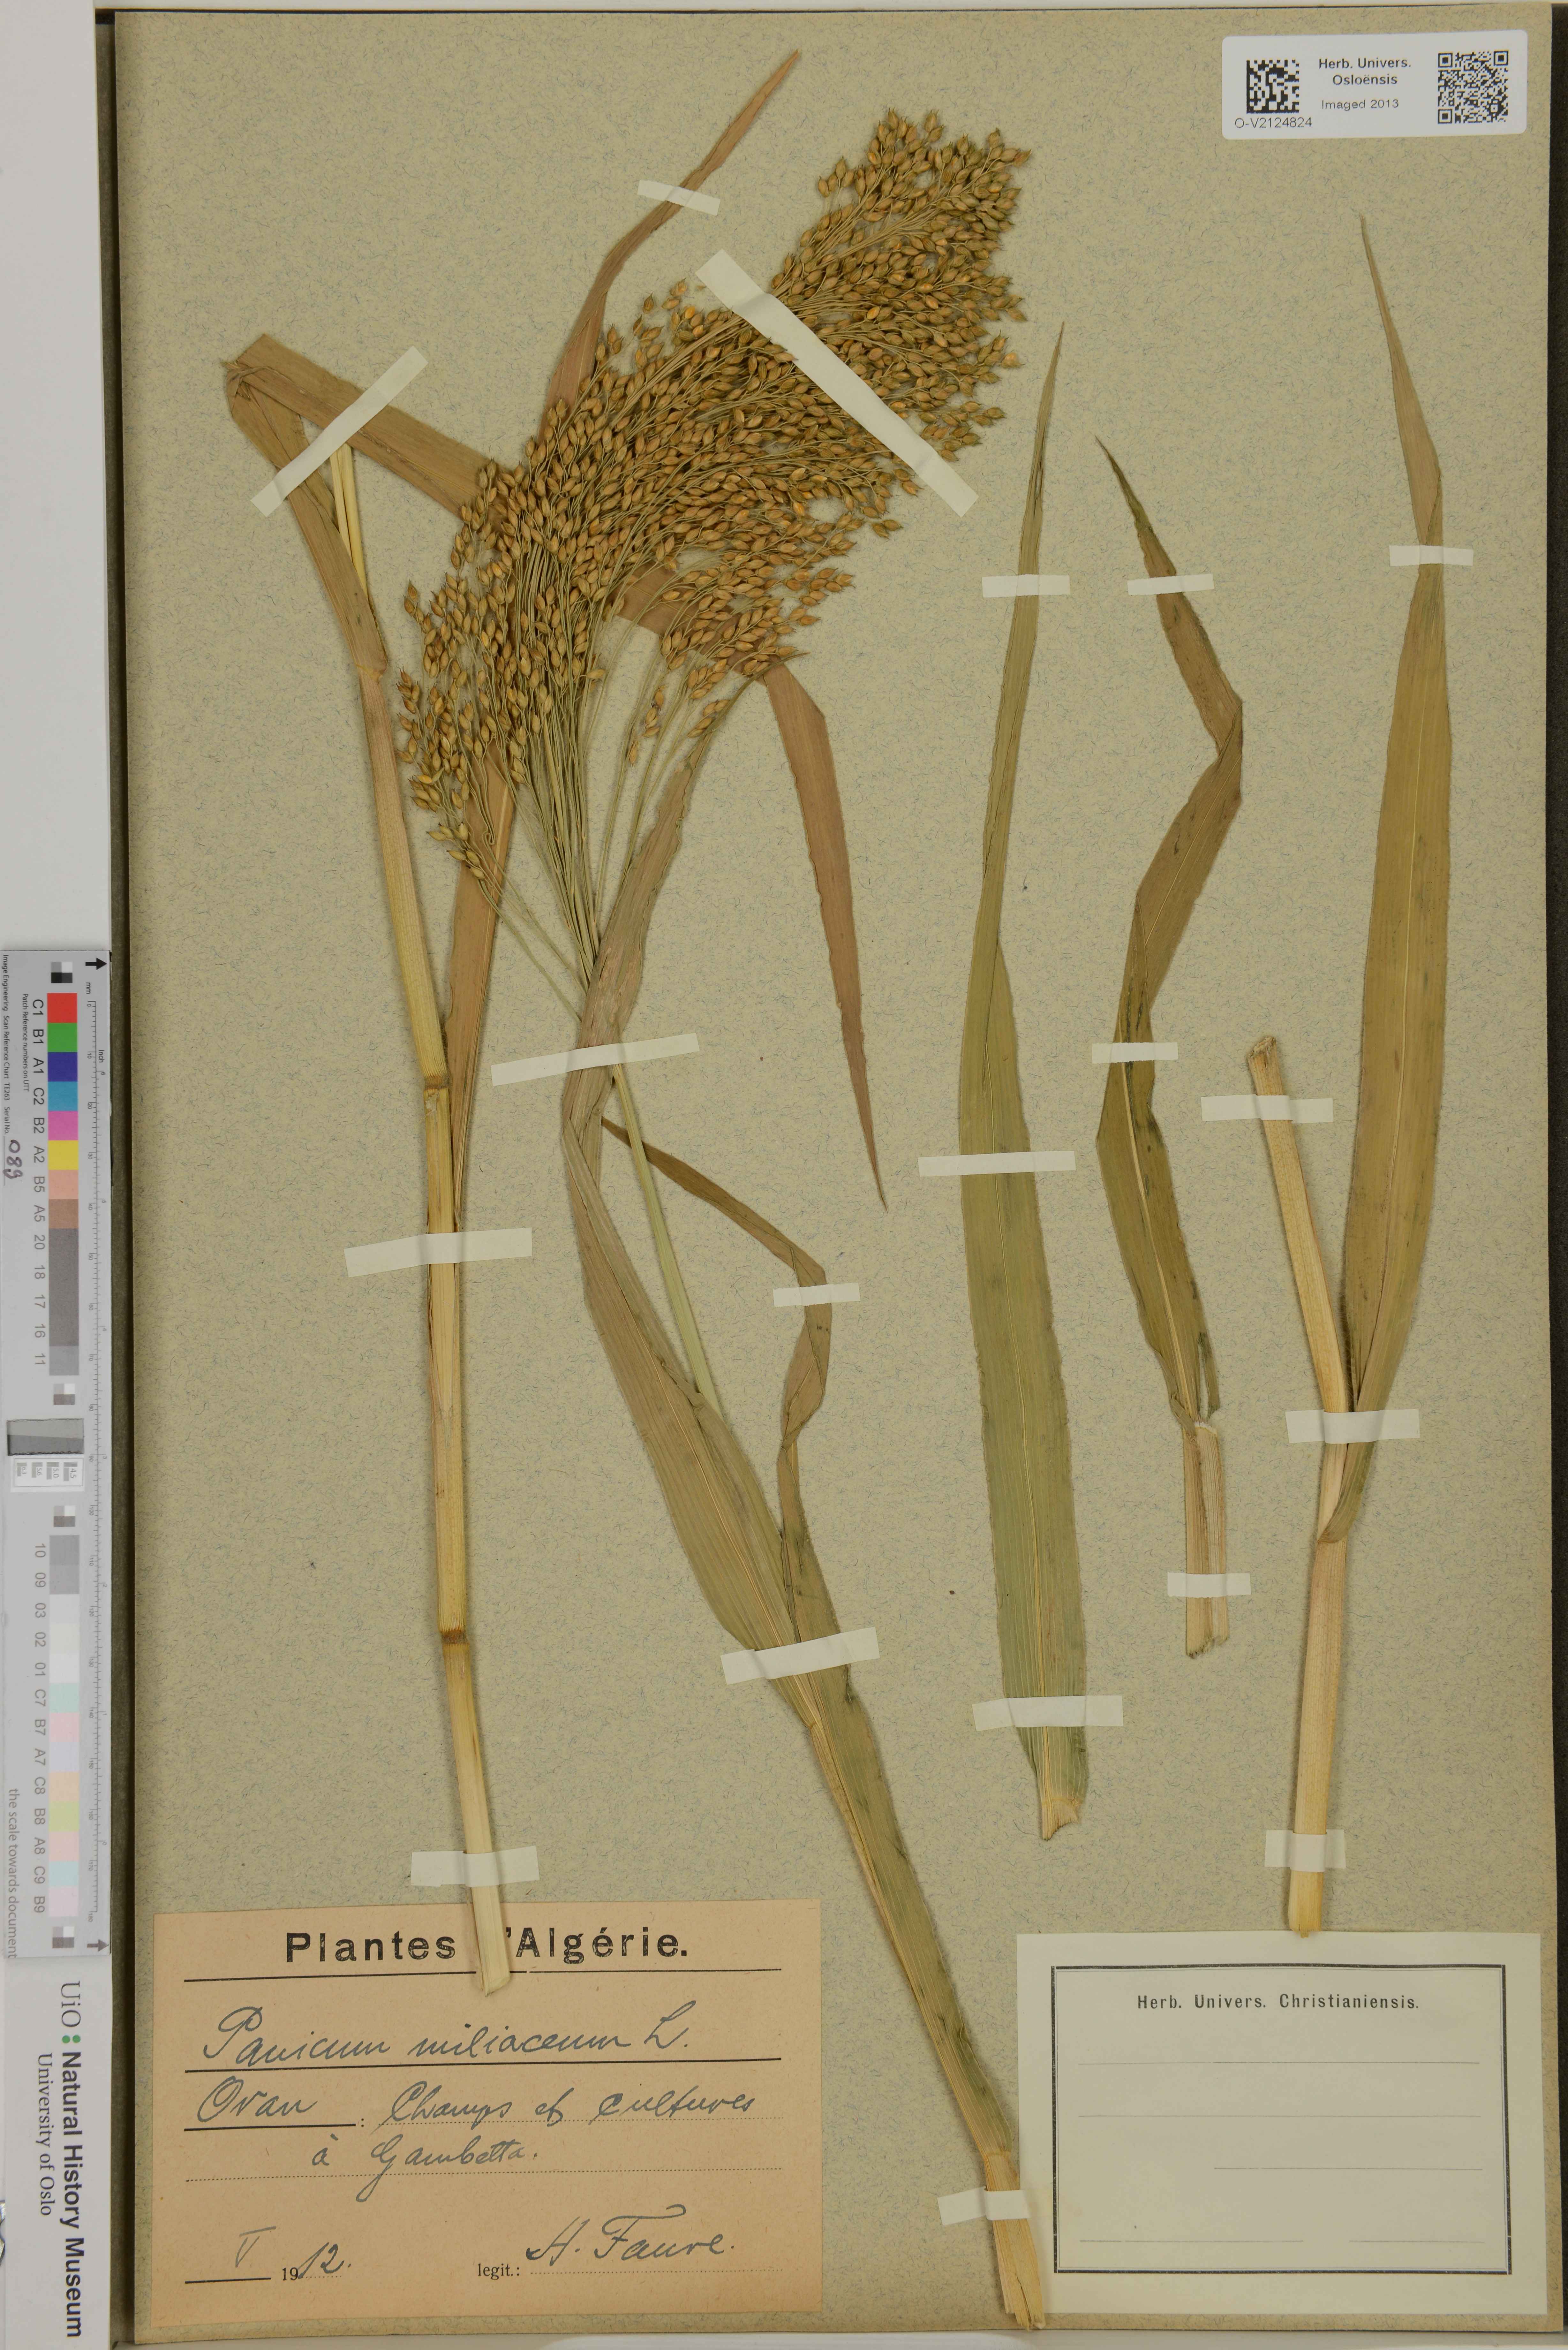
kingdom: Plantae
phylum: Tracheophyta
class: Liliopsida
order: Poales
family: Poaceae
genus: Panicum
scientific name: Panicum miliaceum
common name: Common millet
